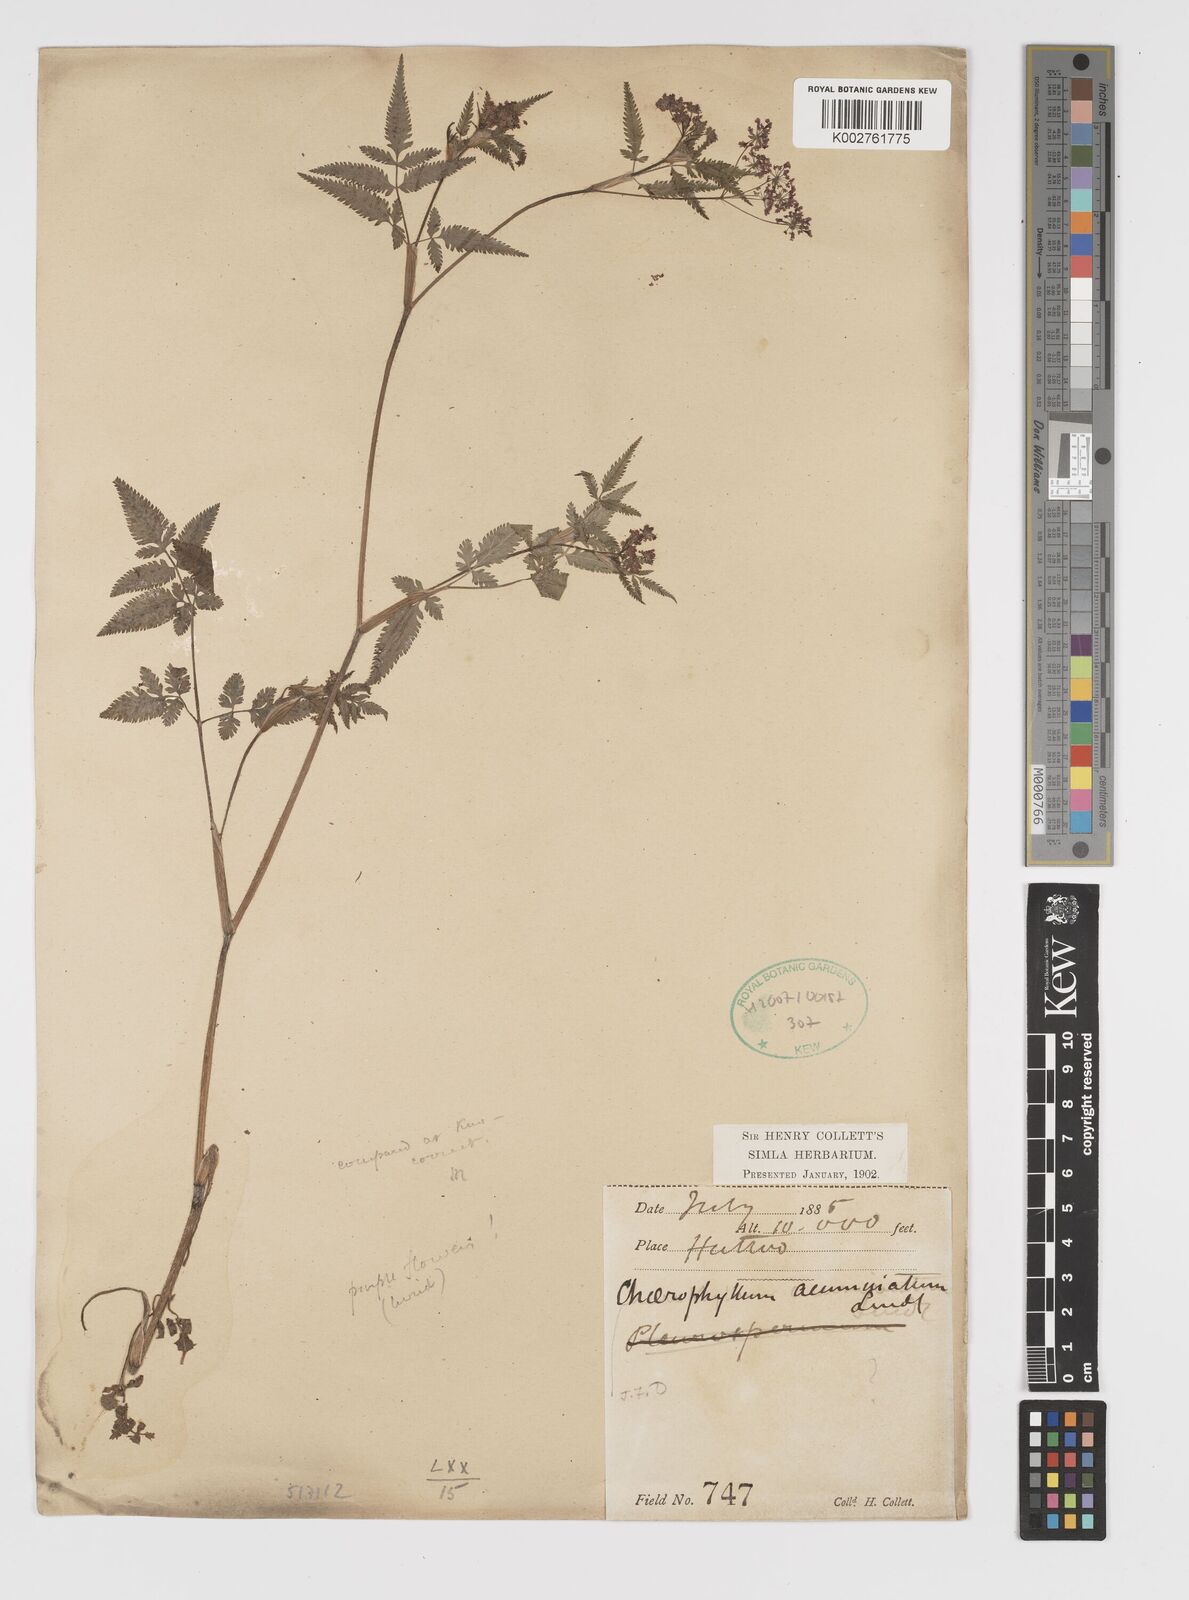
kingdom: Plantae
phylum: Tracheophyta
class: Magnoliopsida
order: Apiales
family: Apiaceae
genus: Chaerophyllum
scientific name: Chaerophyllum reflexum
